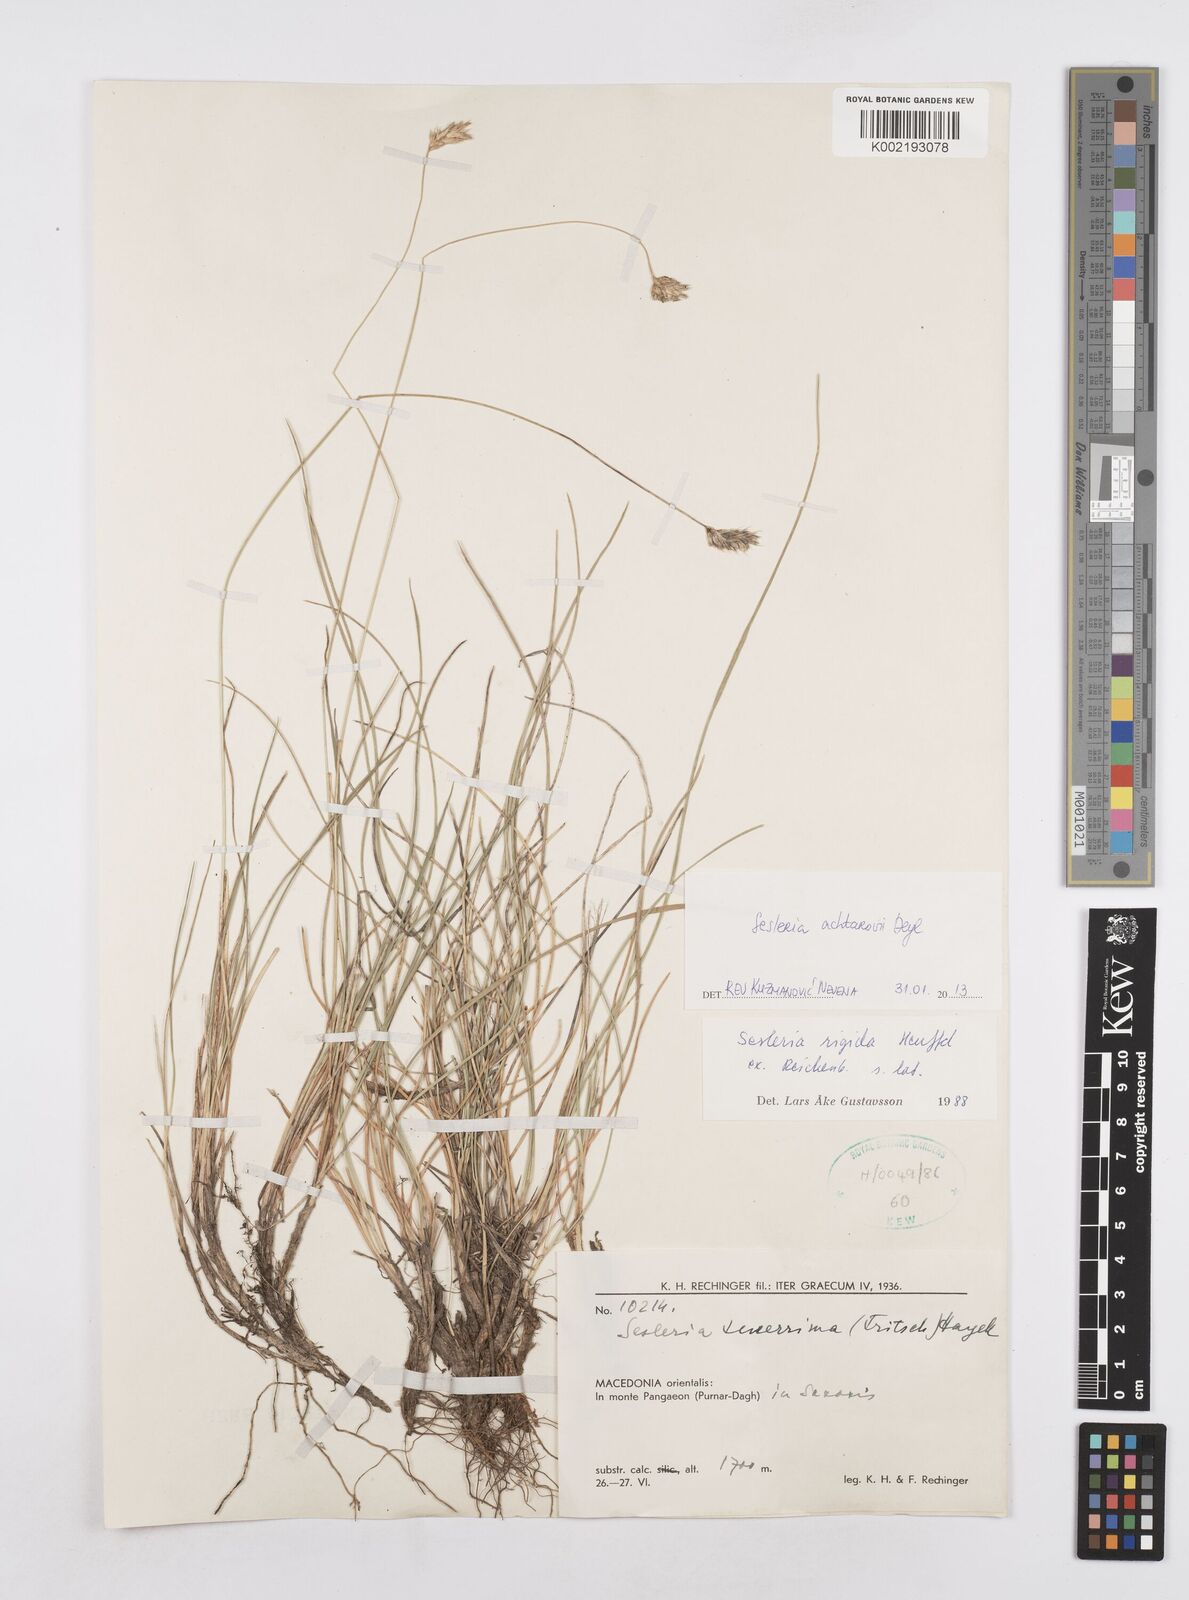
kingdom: Plantae
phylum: Tracheophyta
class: Liliopsida
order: Poales
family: Poaceae
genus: Sesleria
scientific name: Sesleria achtarovii
